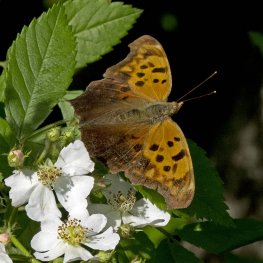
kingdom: Animalia
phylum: Arthropoda
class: Insecta
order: Lepidoptera
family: Nymphalidae
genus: Polygonia
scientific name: Polygonia interrogationis
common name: Question Mark
